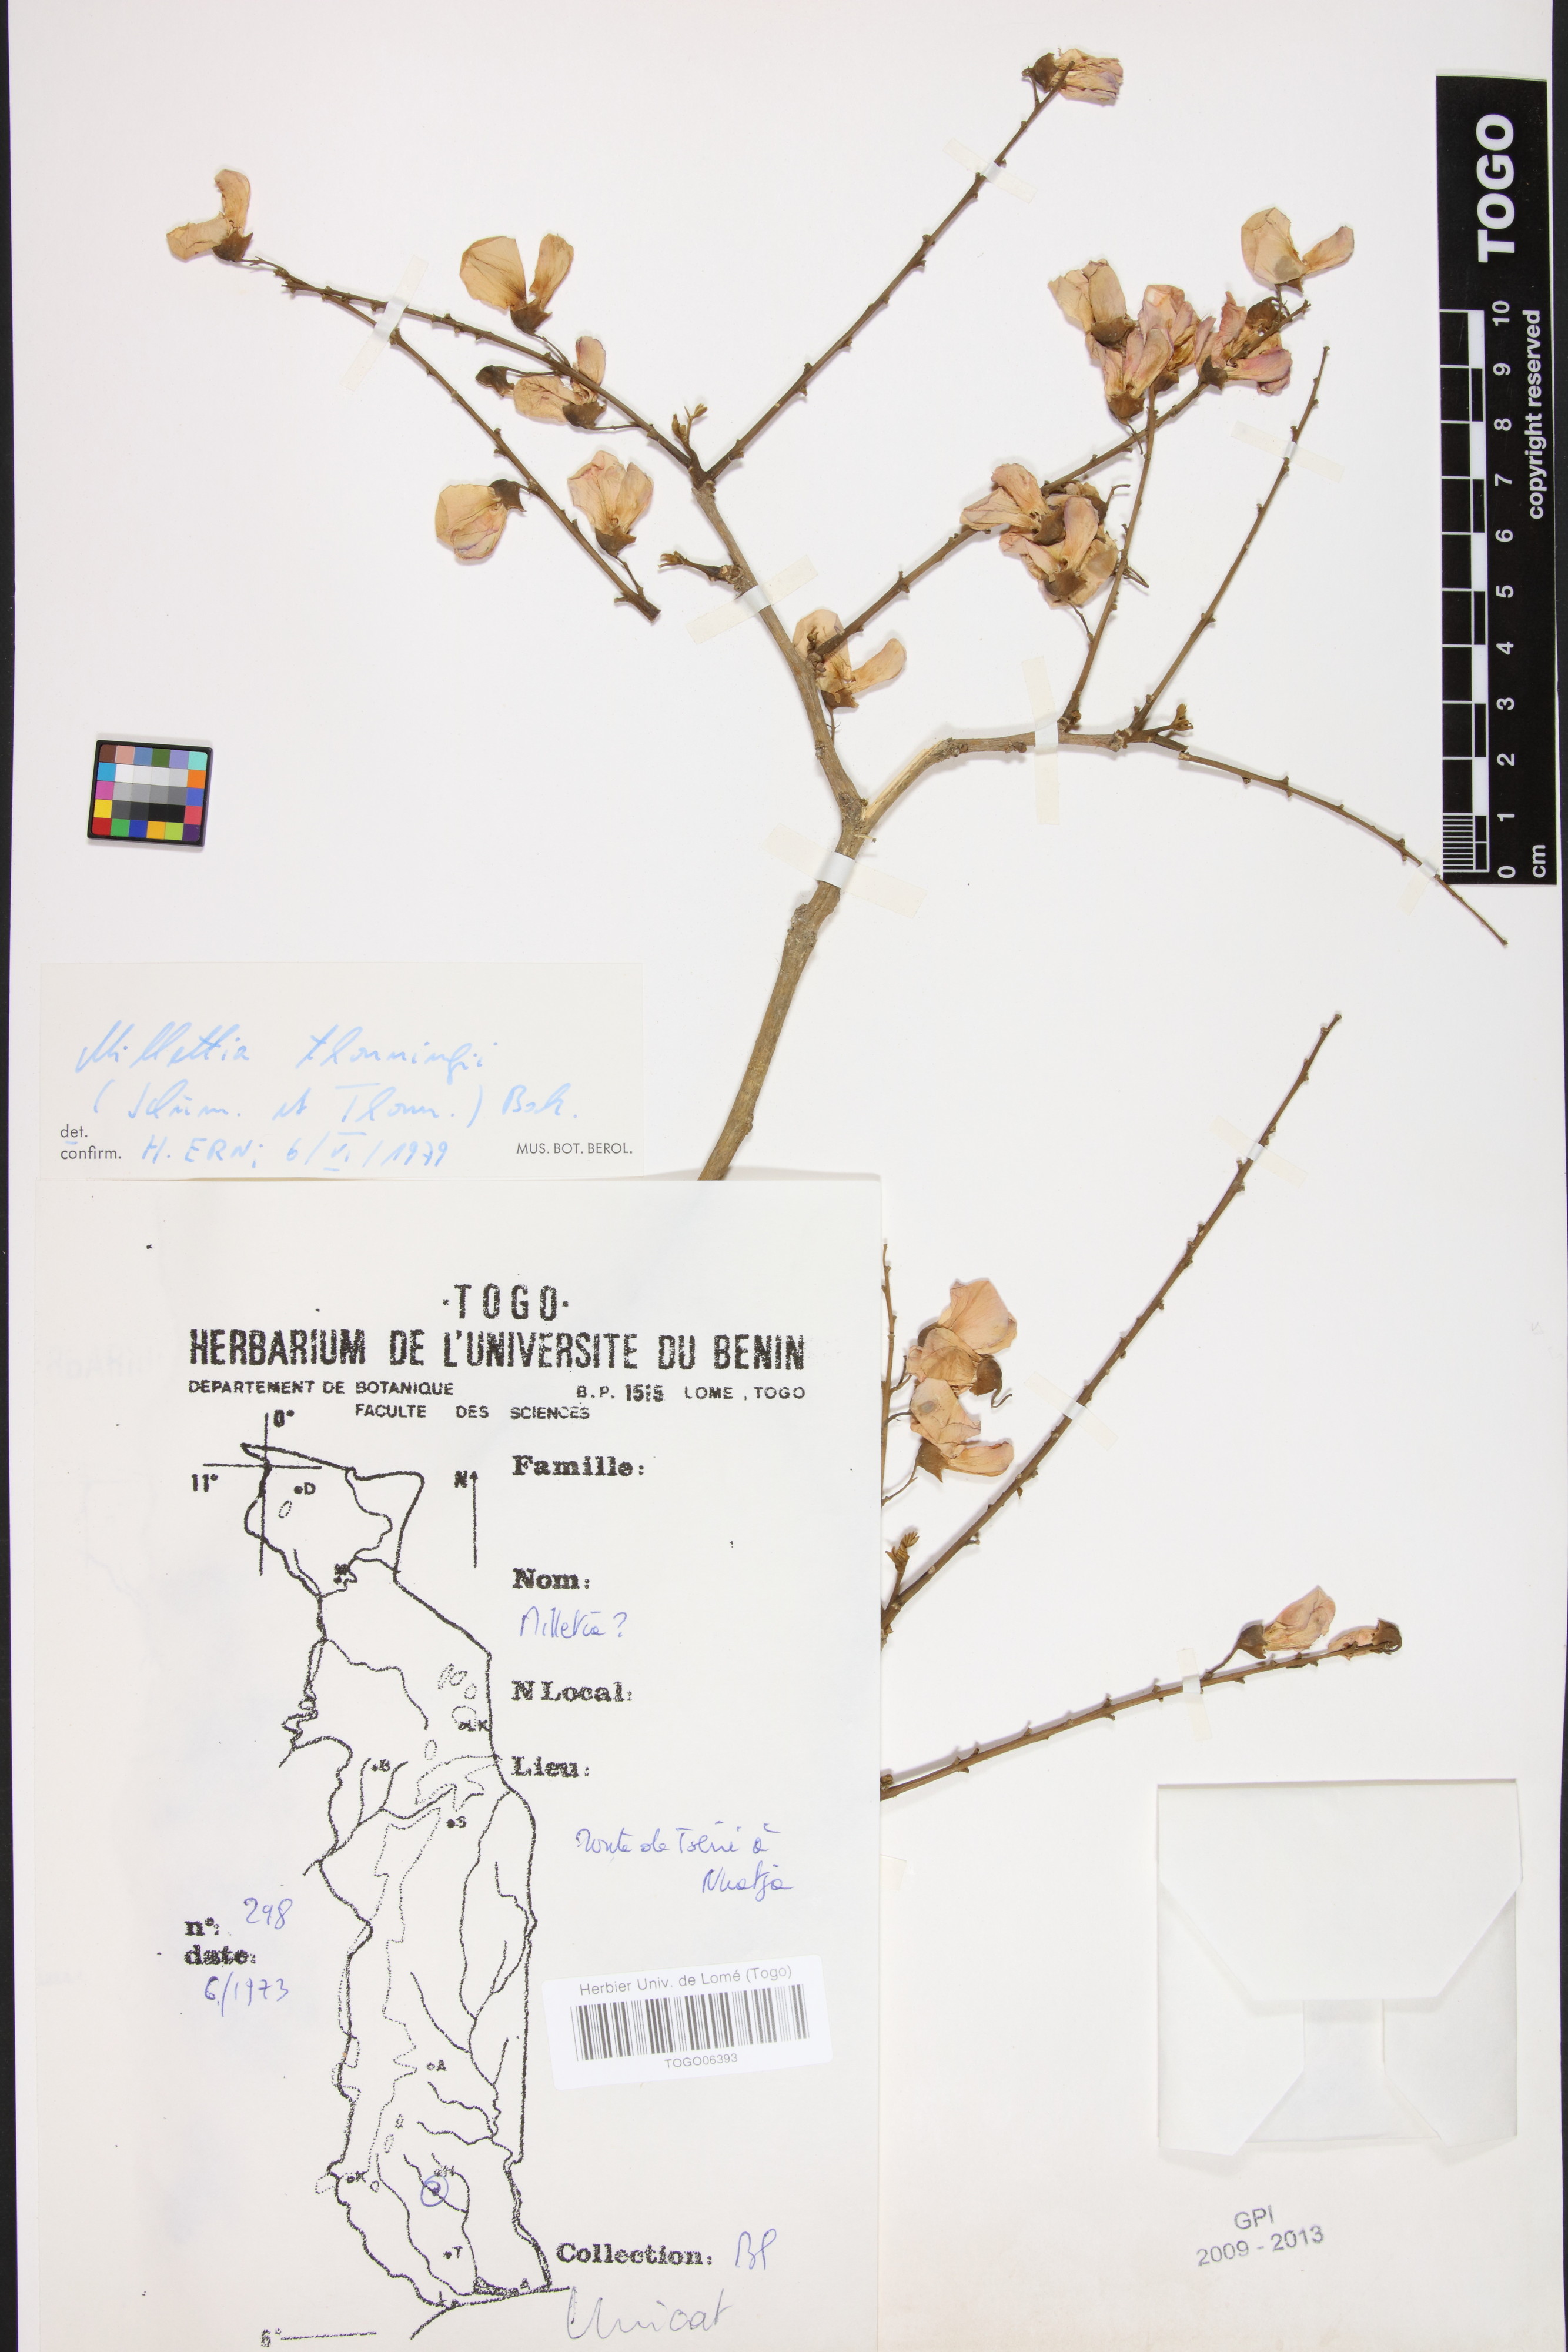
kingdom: Plantae
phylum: Tracheophyta
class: Magnoliopsida
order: Fabales
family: Fabaceae
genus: Millettia
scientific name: Millettia thonningii
